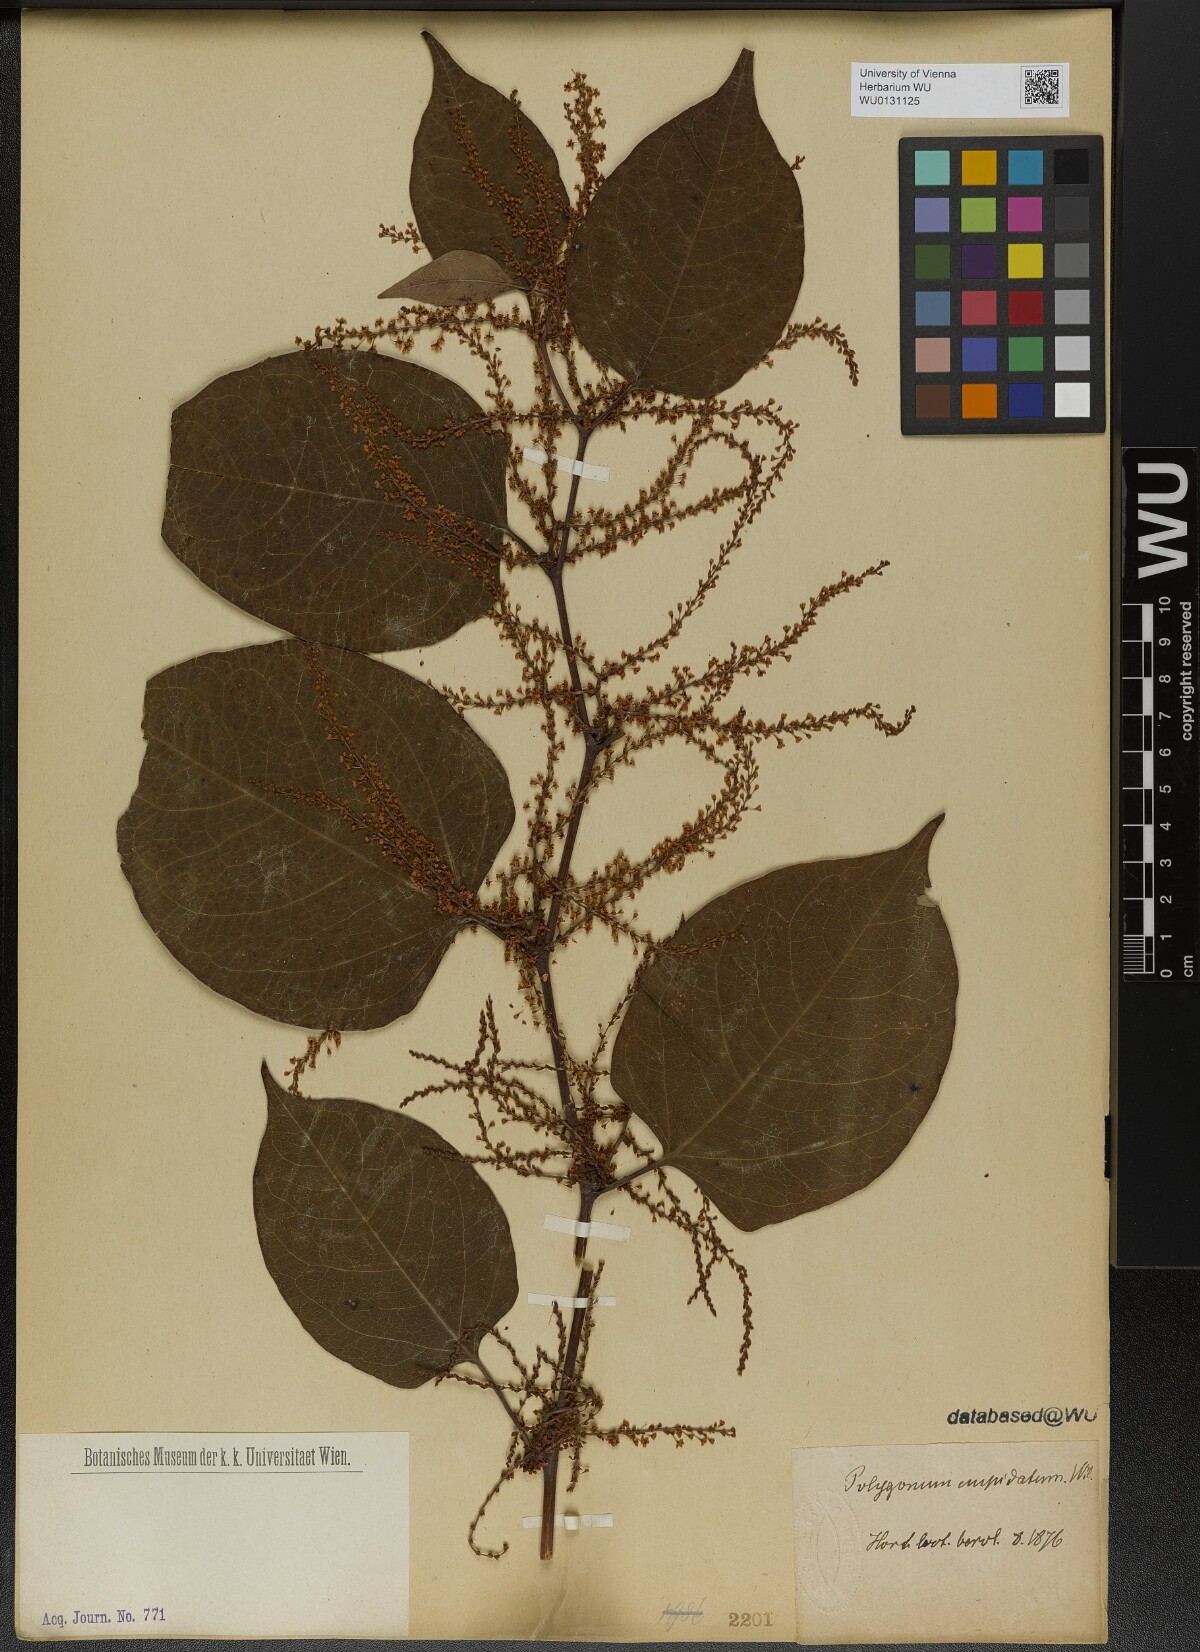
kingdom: Plantae
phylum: Tracheophyta
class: Magnoliopsida
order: Caryophyllales
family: Polygonaceae
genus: Reynoutria
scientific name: Reynoutria japonica
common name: Japanese knotweed
